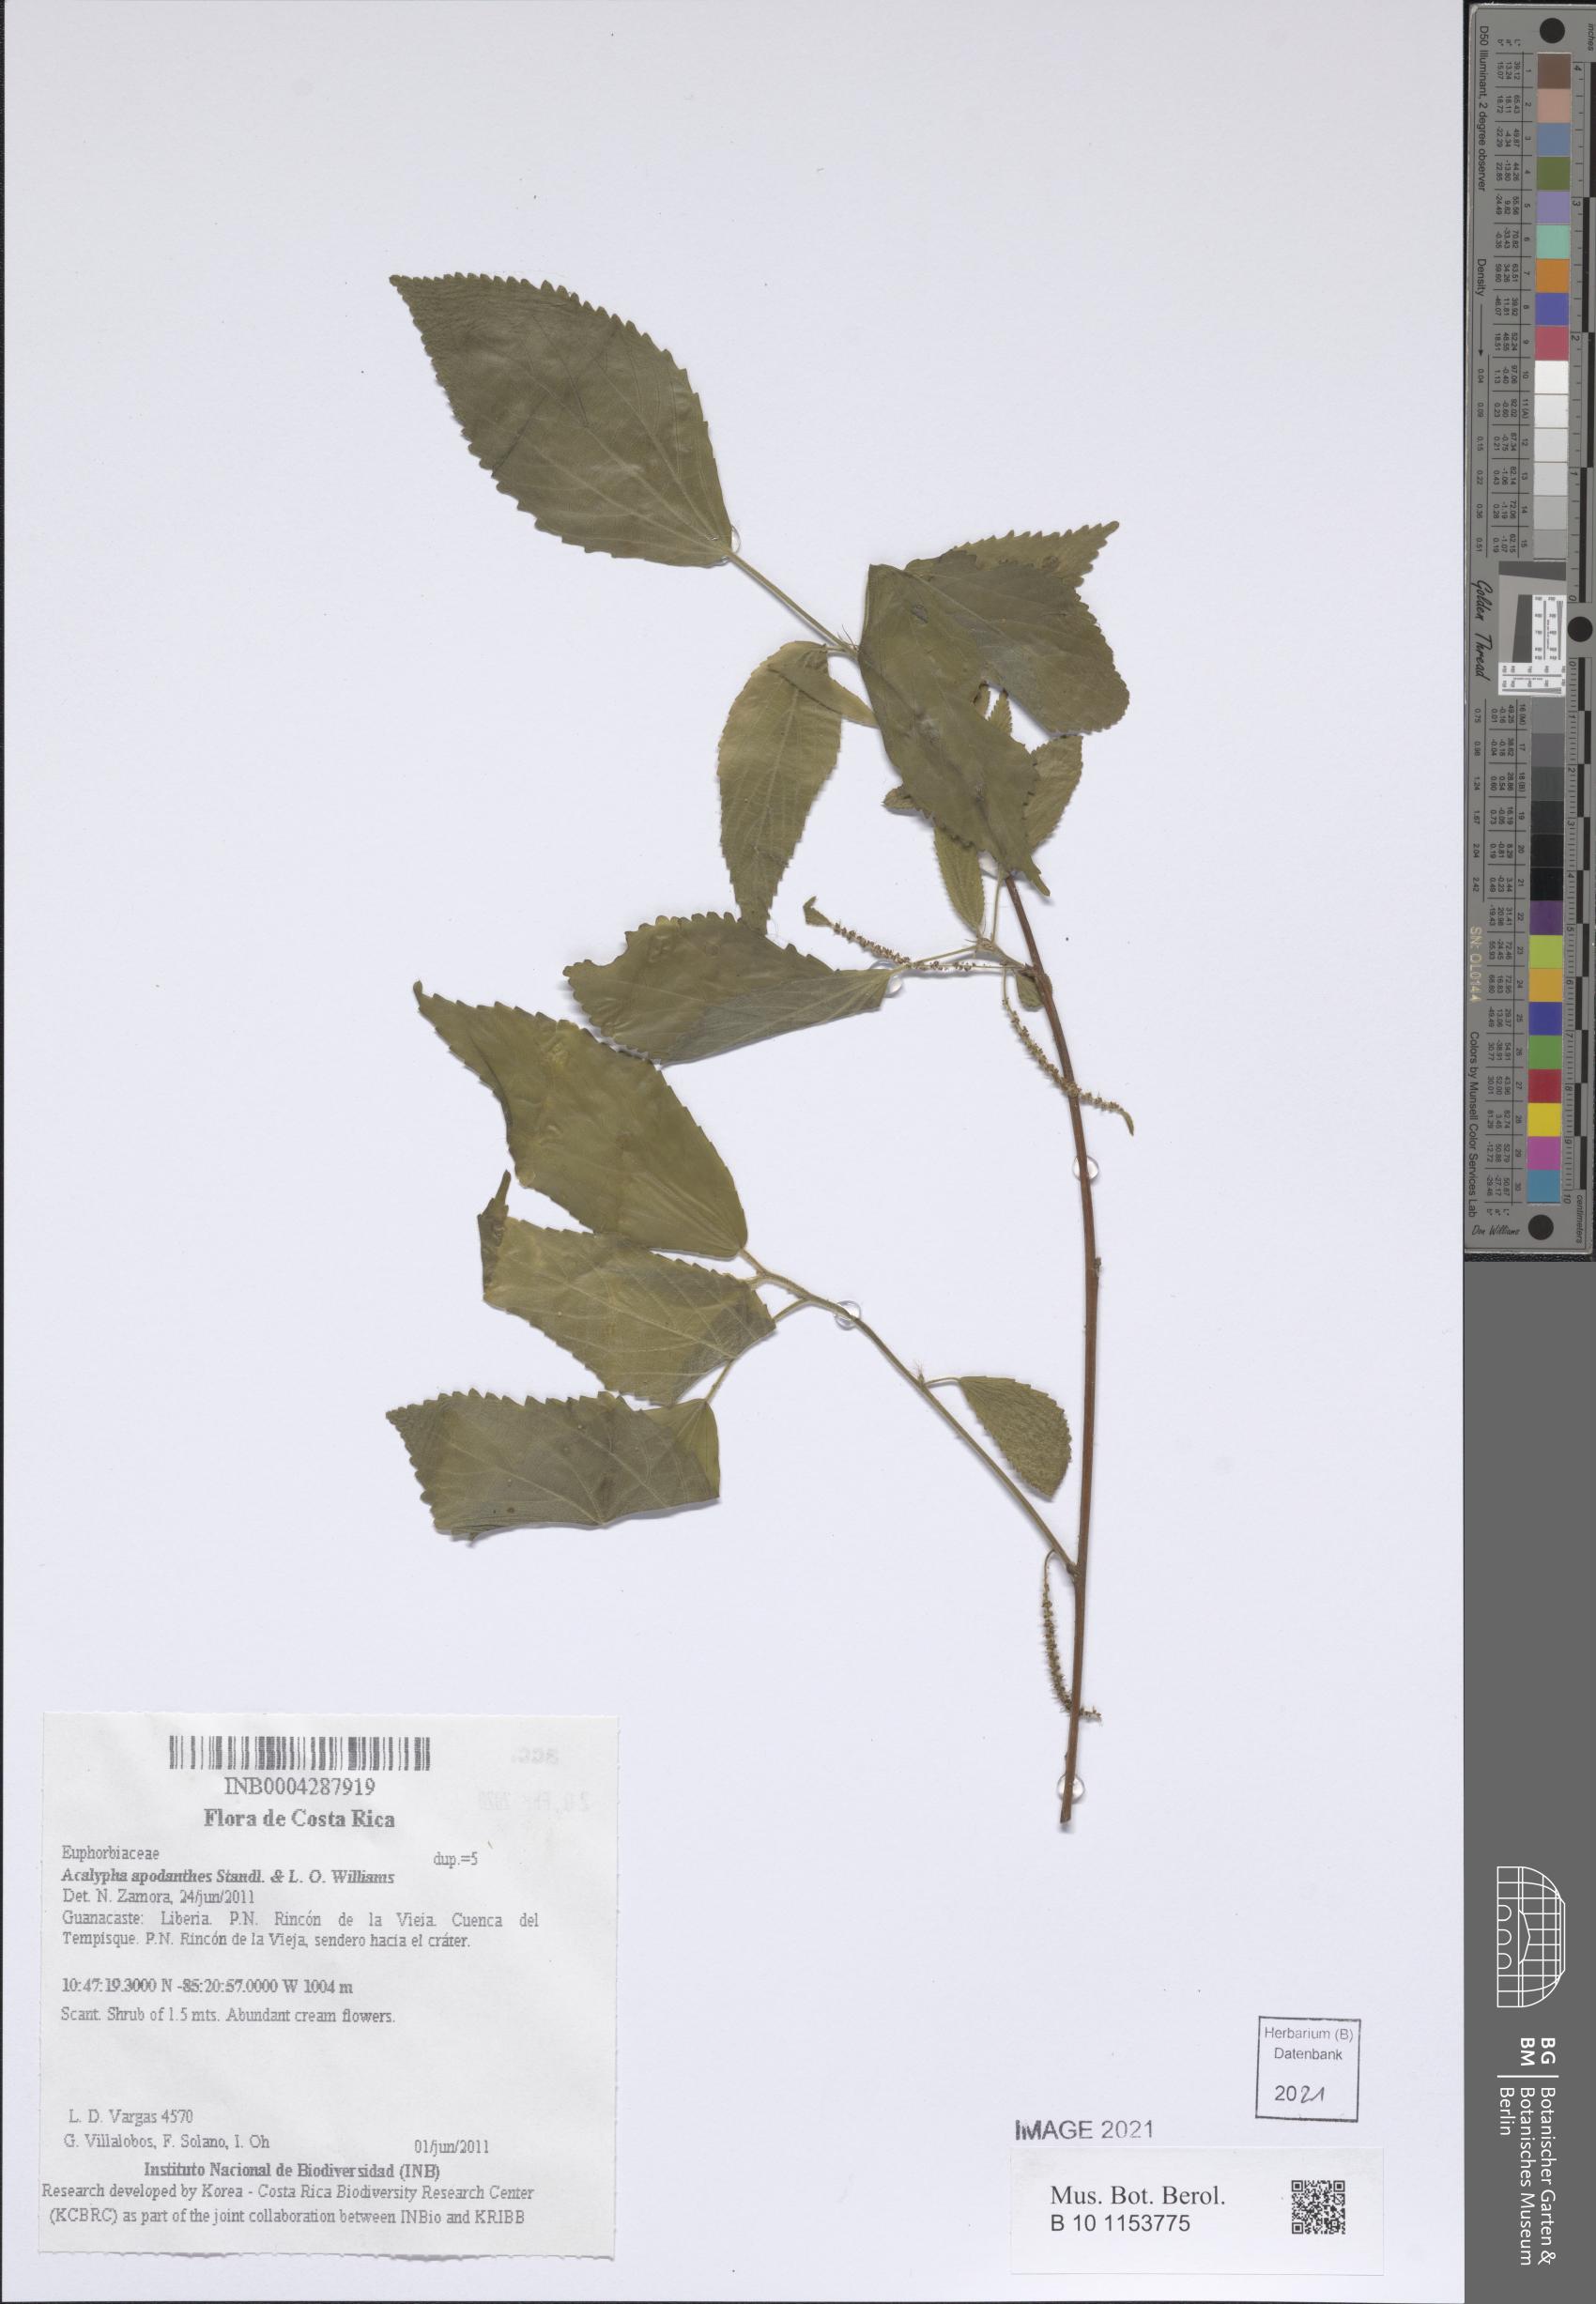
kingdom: Plantae
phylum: Tracheophyta
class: Magnoliopsida
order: Malpighiales
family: Euphorbiaceae
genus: Acalypha
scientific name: Acalypha apodanthes
